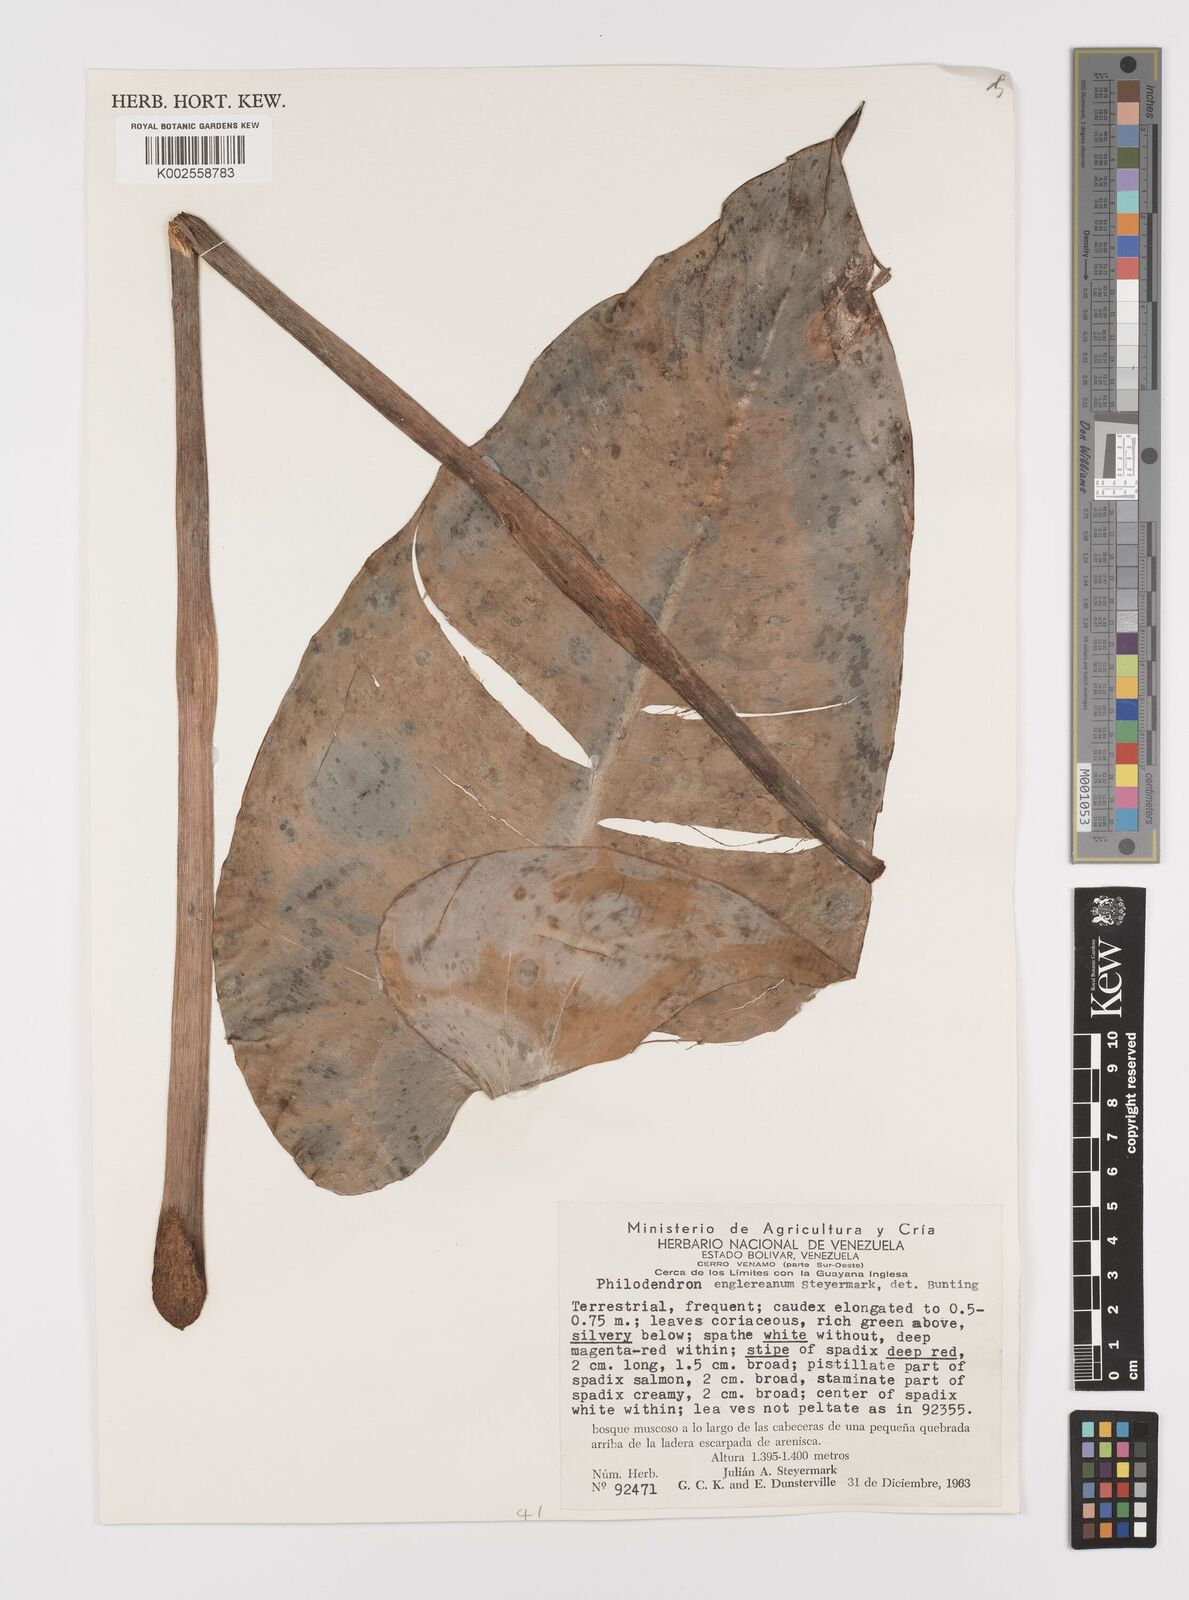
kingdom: Plantae
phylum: Tracheophyta
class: Liliopsida
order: Alismatales
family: Araceae
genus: Philodendron
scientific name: Philodendron englerianum
